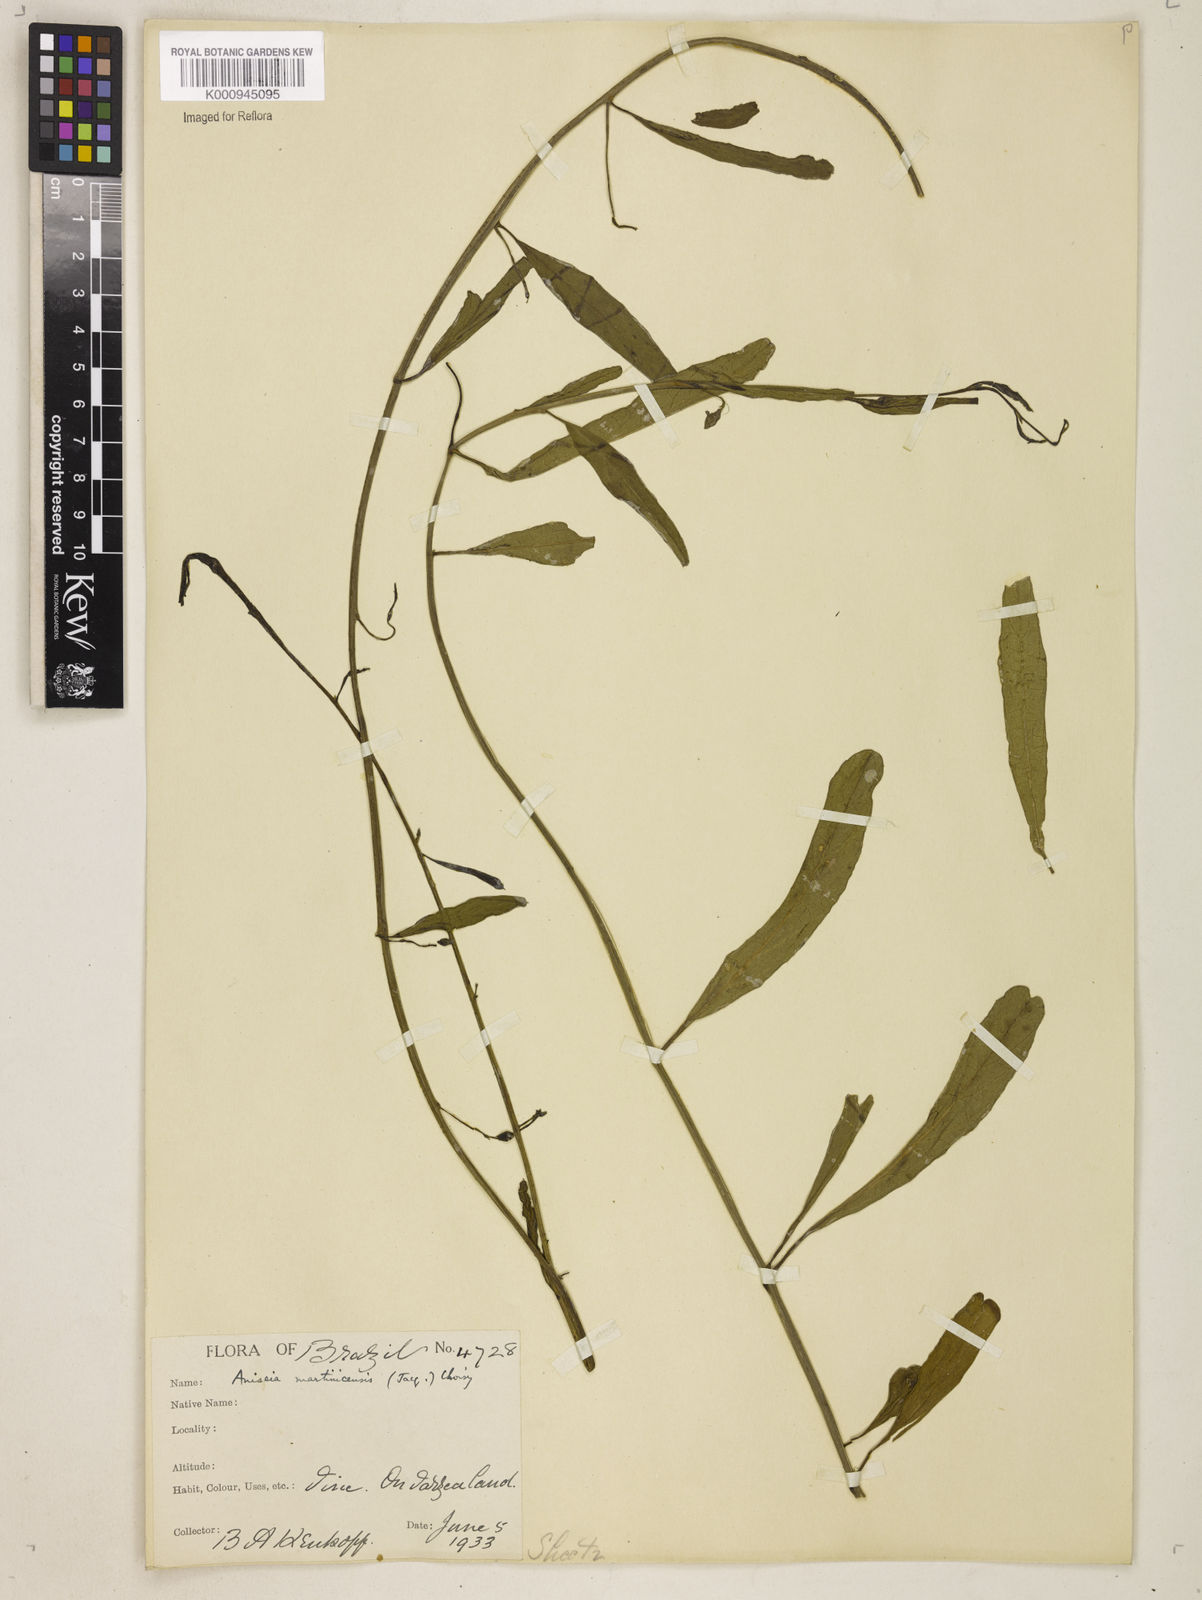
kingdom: Plantae
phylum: Tracheophyta
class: Magnoliopsida
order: Solanales
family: Convolvulaceae
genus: Aniseia
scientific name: Aniseia martinicensis
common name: Kulayadambu
